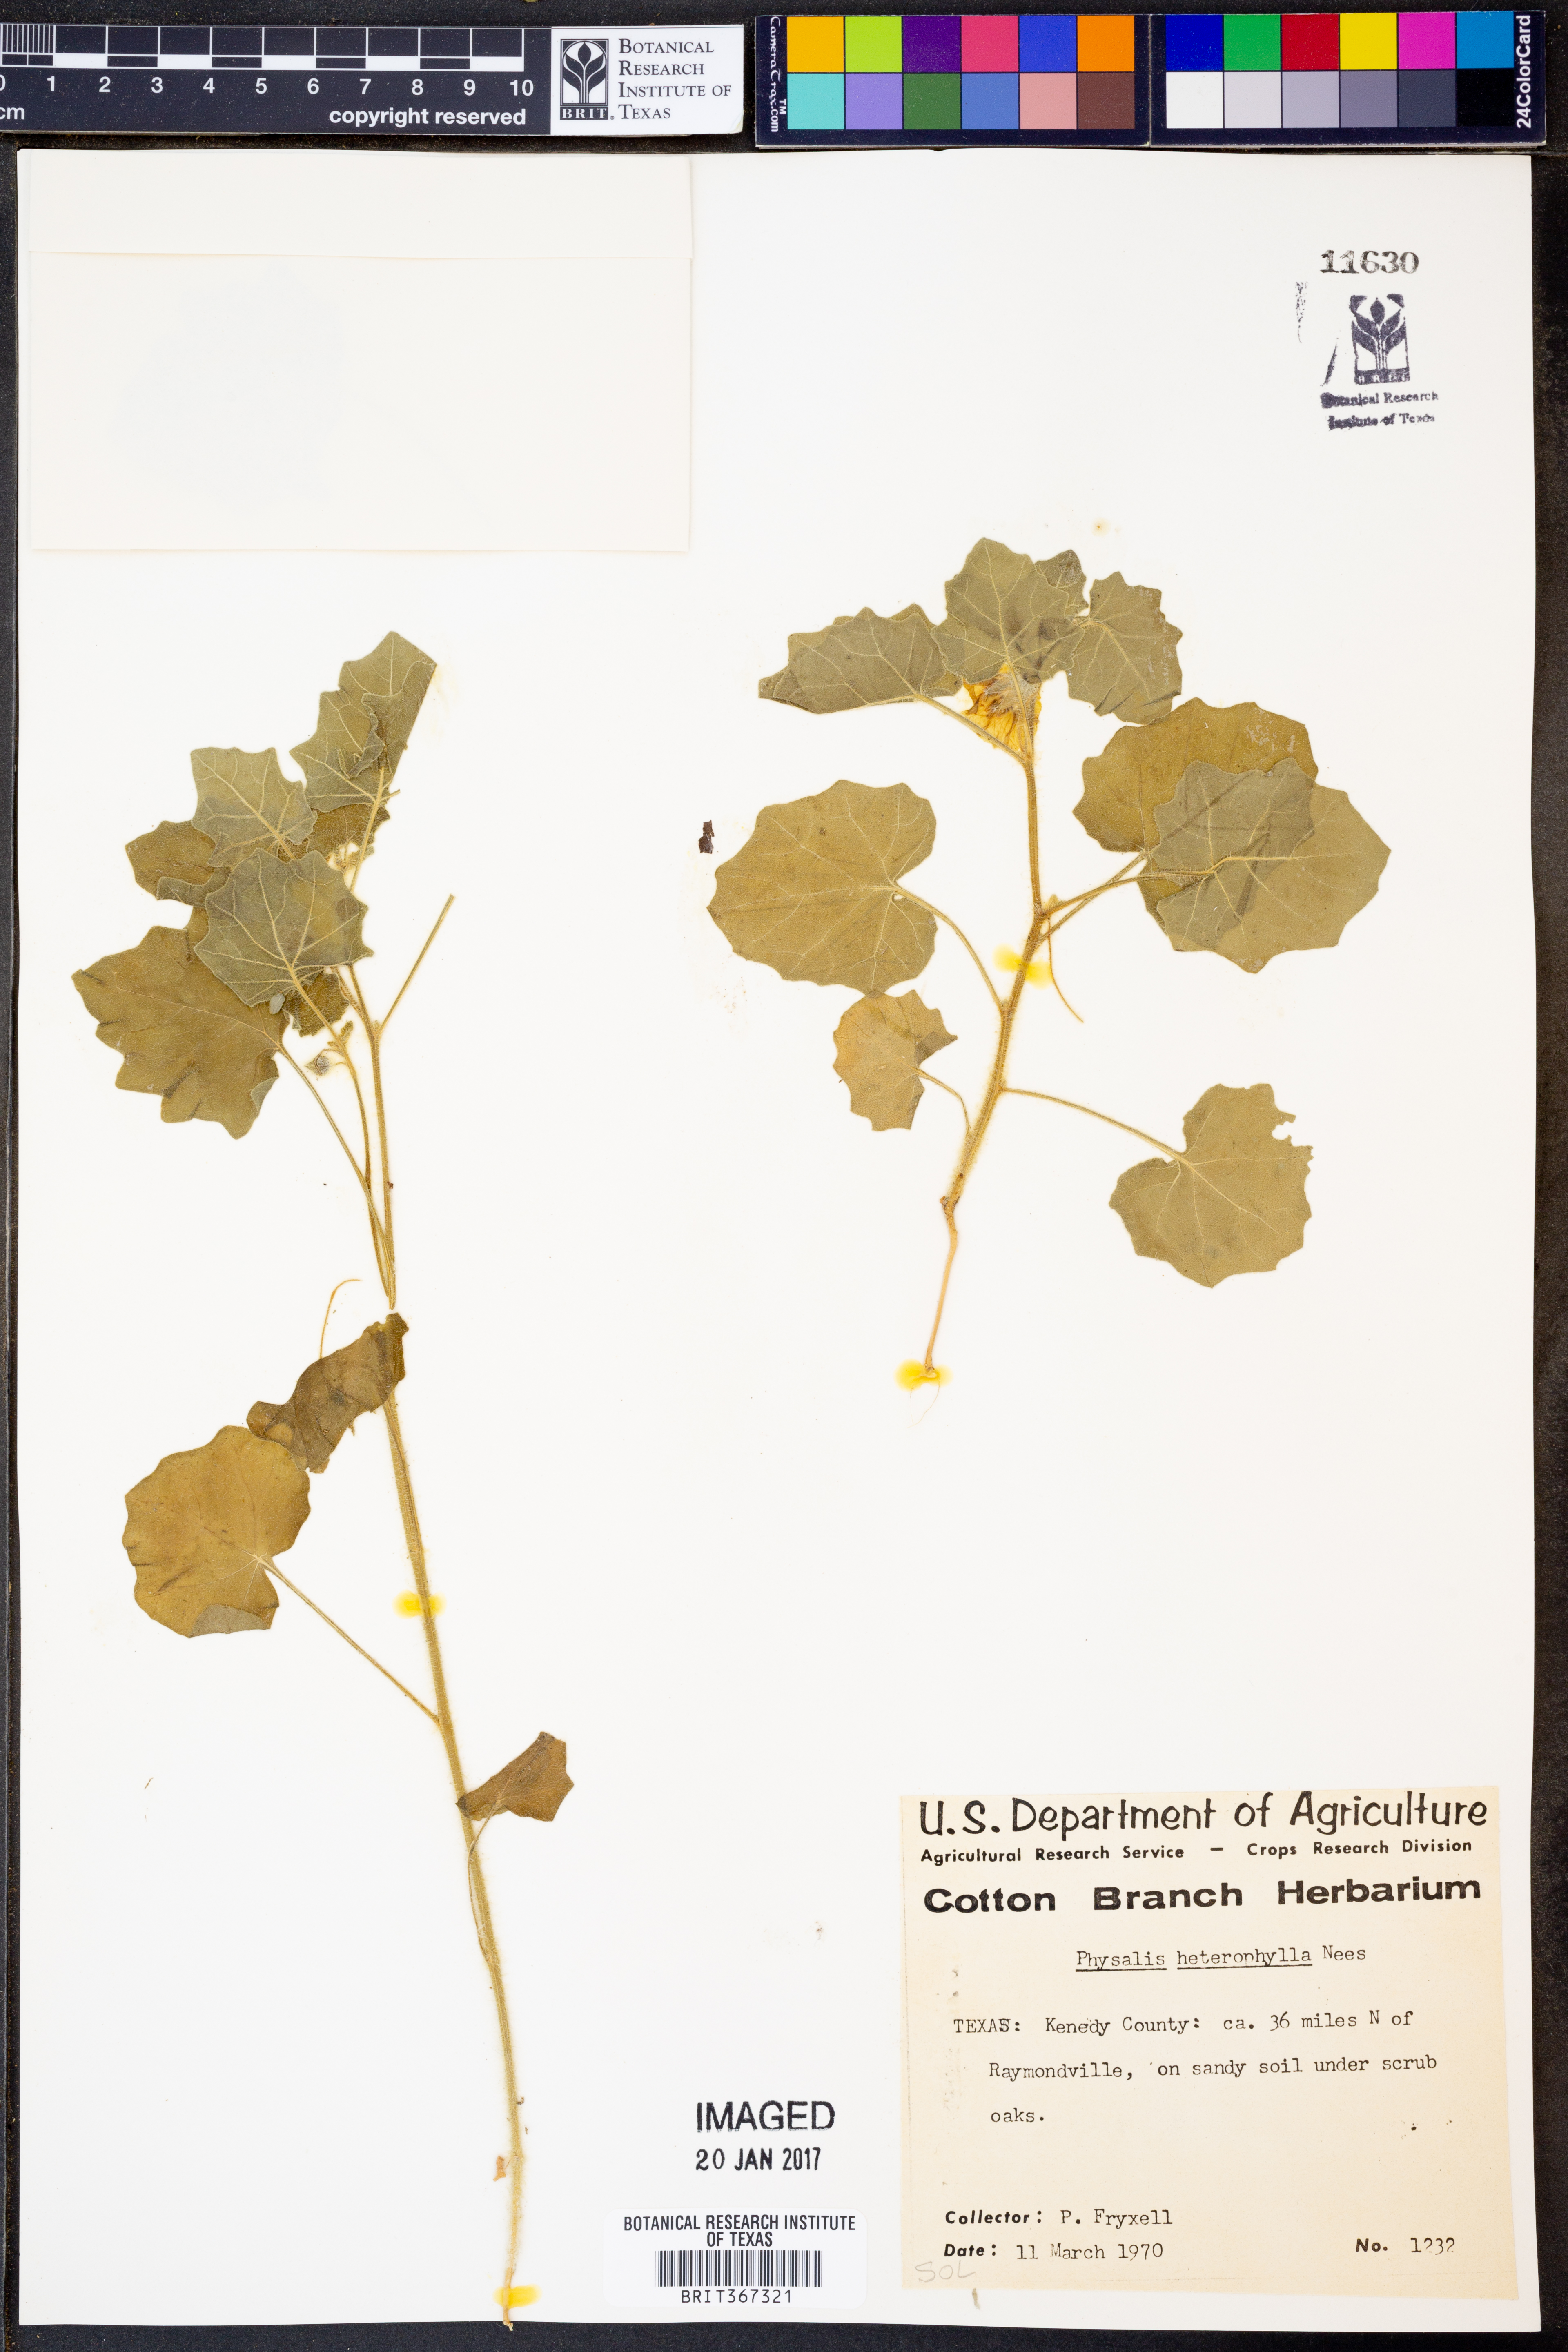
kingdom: Plantae
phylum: Tracheophyta
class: Magnoliopsida
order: Solanales
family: Solanaceae
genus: Physalis
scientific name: Physalis hederifolia
